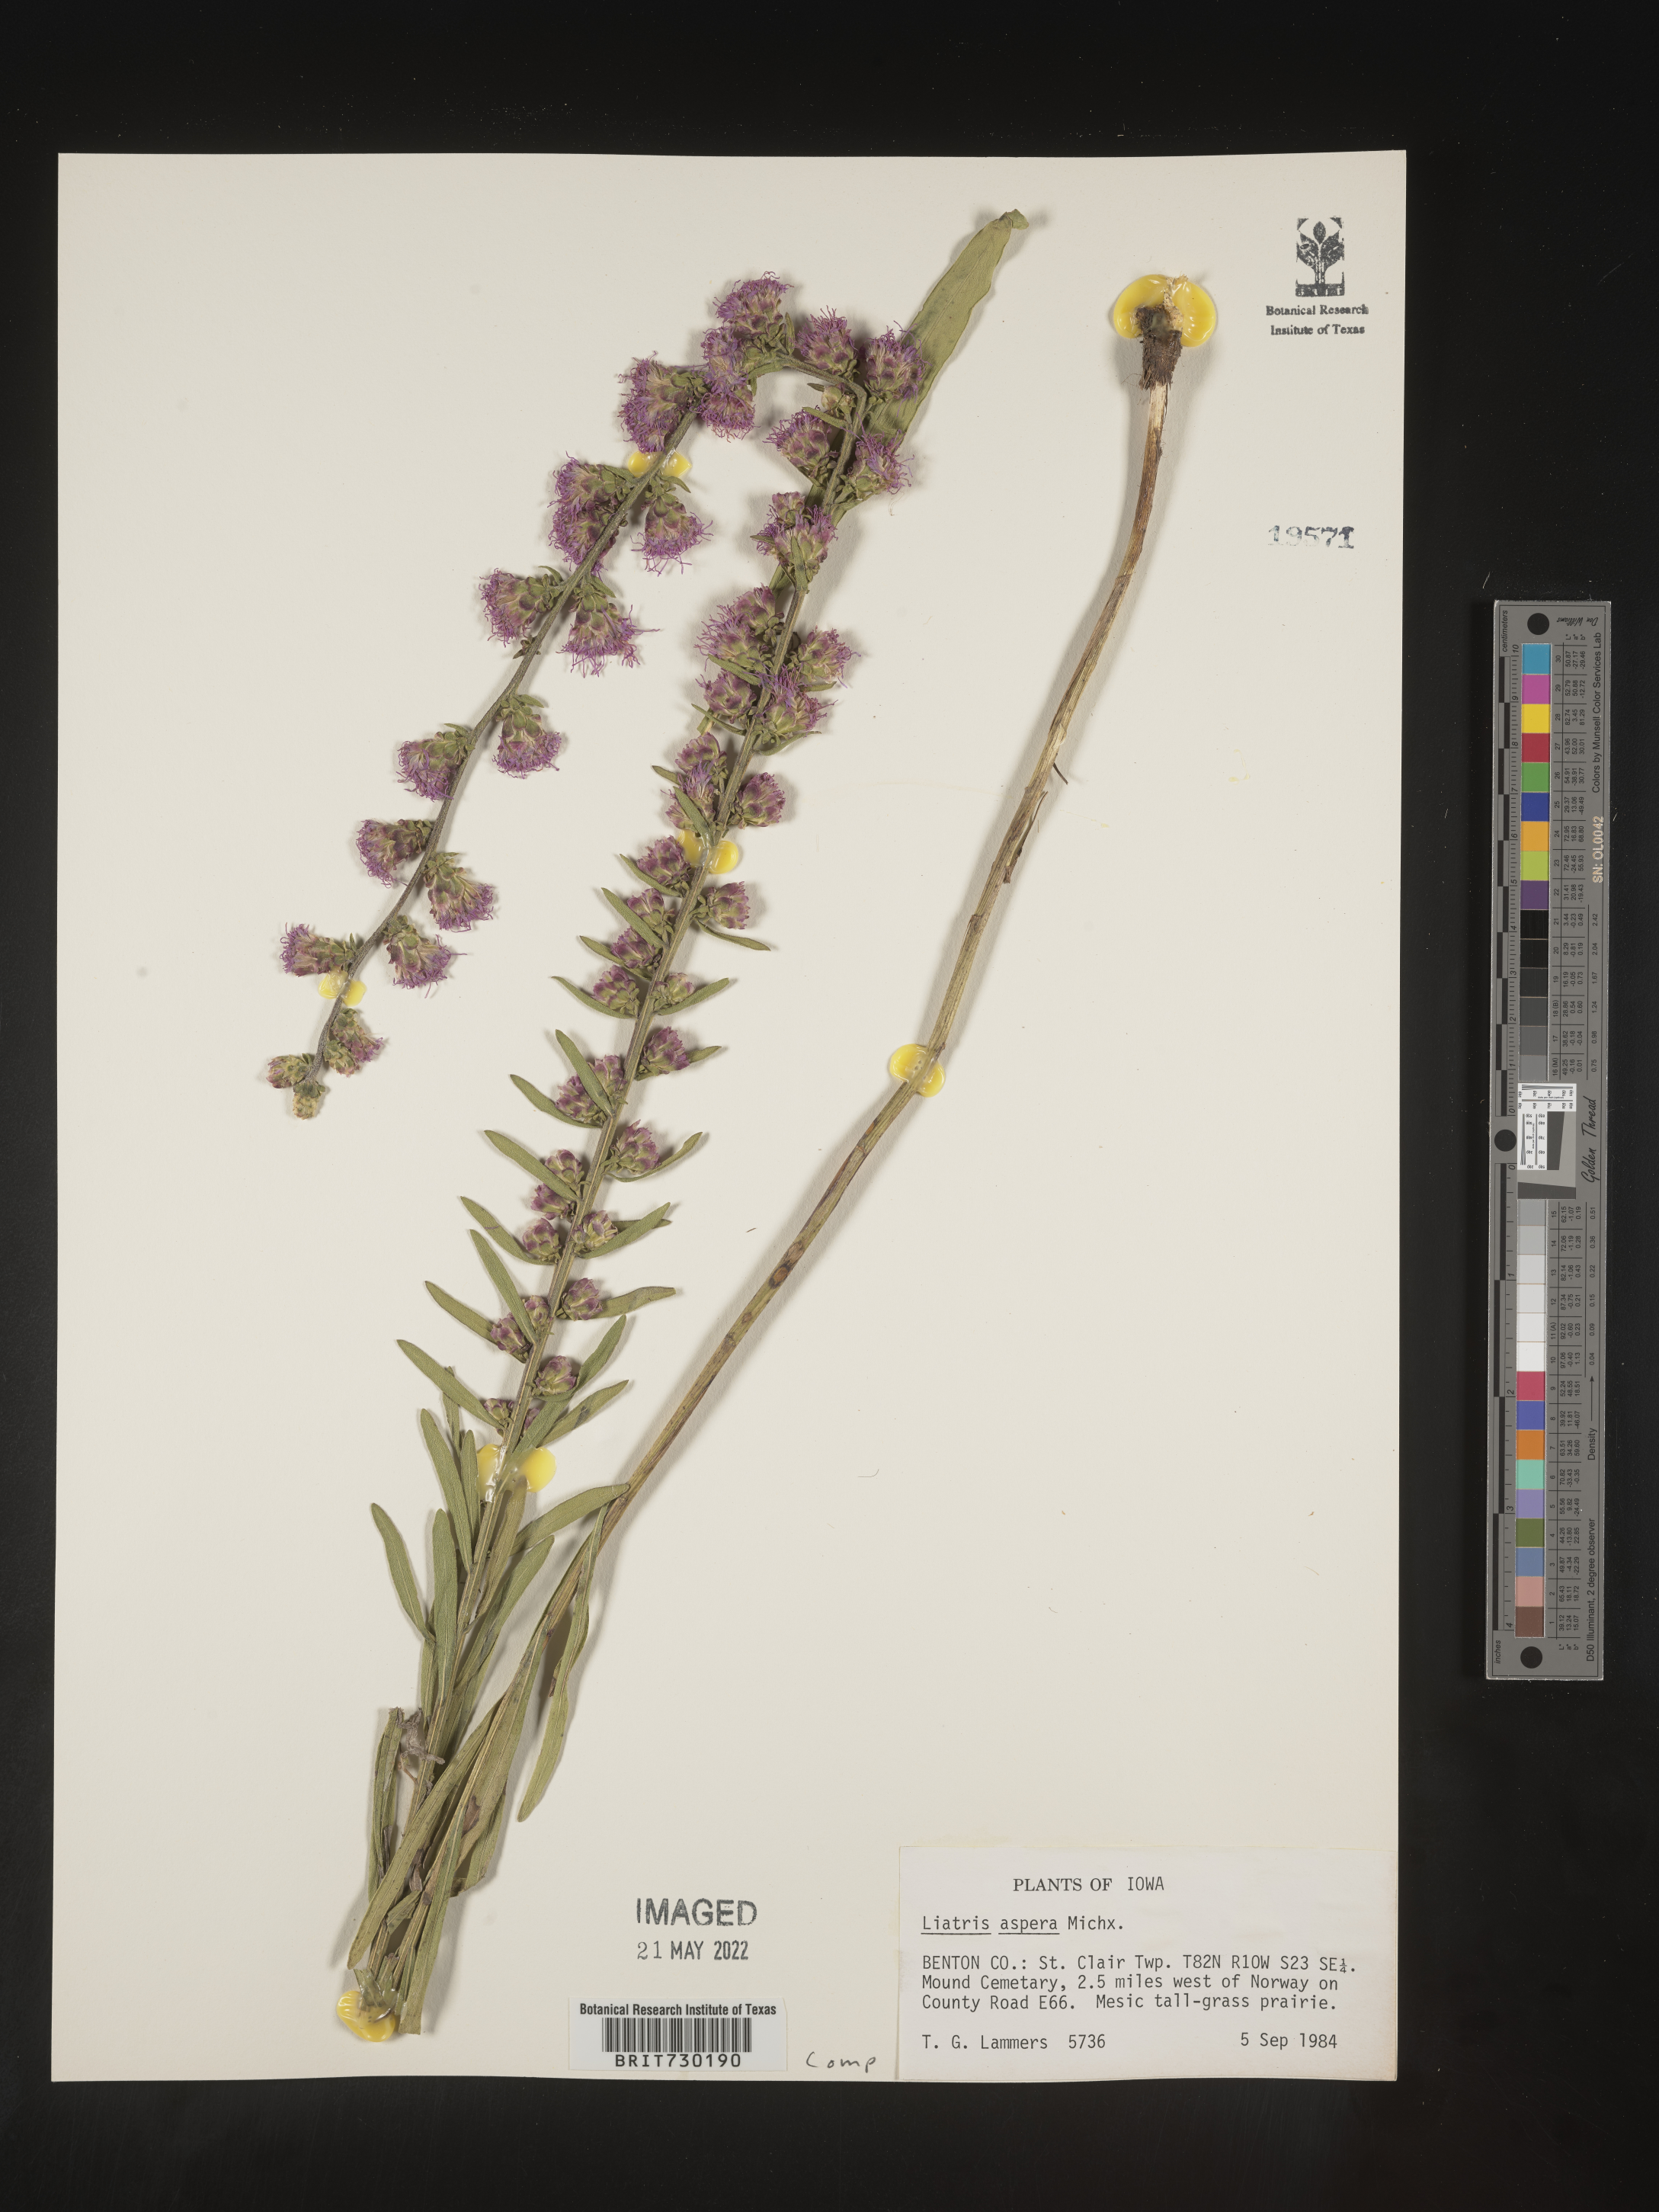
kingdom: Plantae
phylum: Tracheophyta
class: Magnoliopsida
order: Asterales
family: Asteraceae
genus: Liatris
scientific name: Liatris aspera
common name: Lacerate blazing-star
